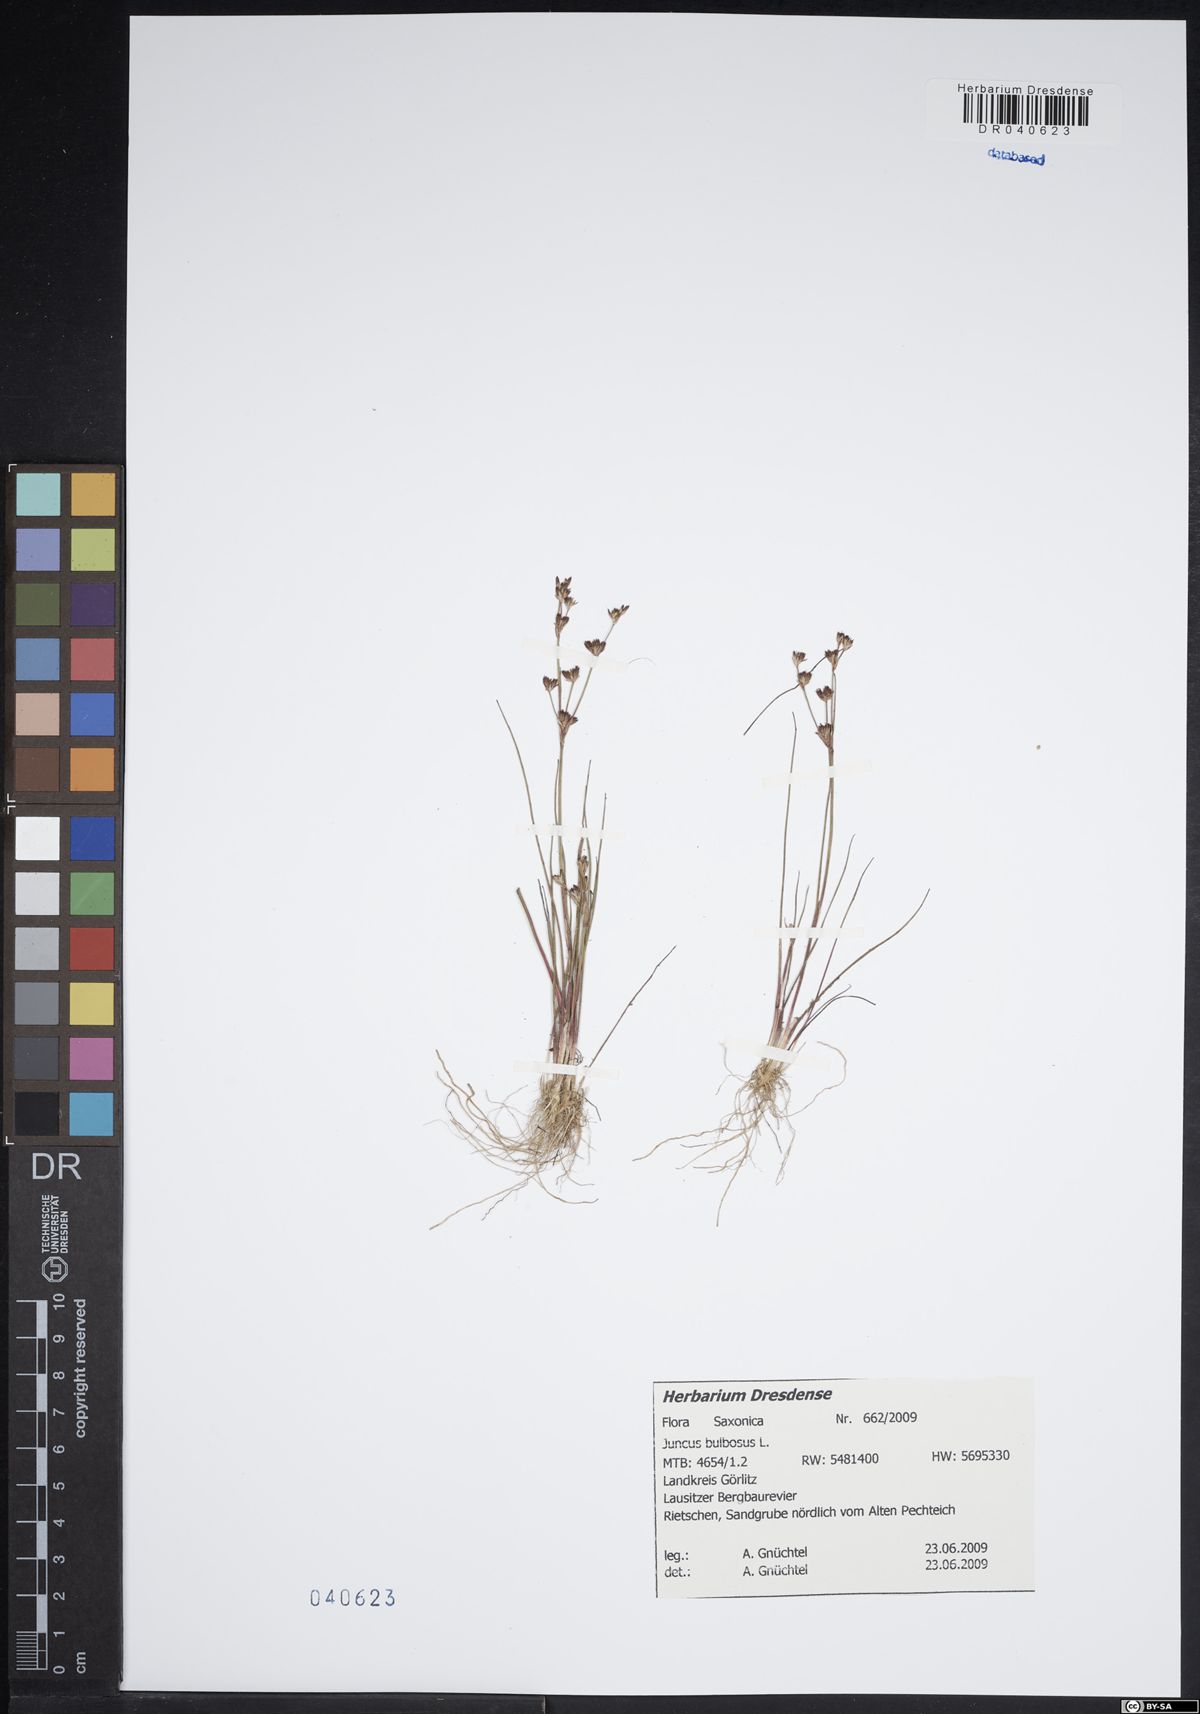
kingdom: Plantae
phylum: Tracheophyta
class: Liliopsida
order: Poales
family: Juncaceae
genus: Juncus
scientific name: Juncus bulbosus
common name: Bulbous rush
